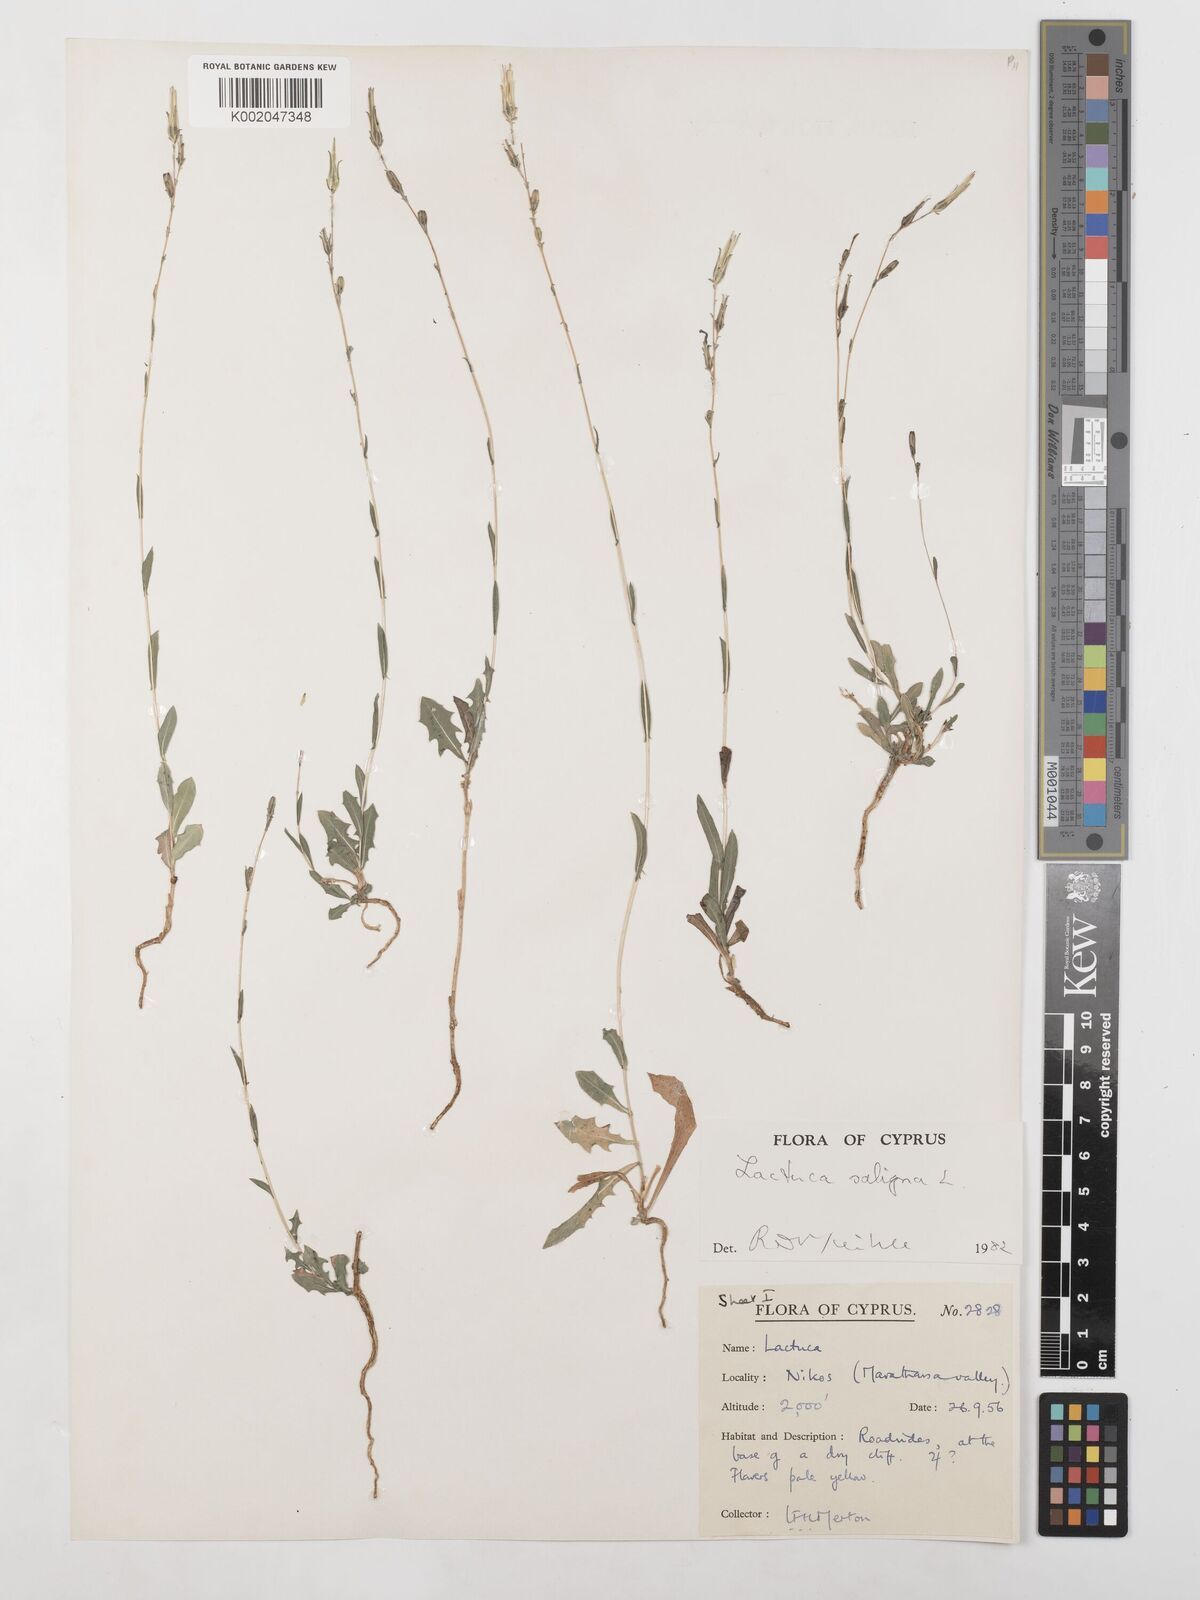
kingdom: Plantae
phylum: Tracheophyta
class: Magnoliopsida
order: Asterales
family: Asteraceae
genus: Lactuca
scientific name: Lactuca saligna
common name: Wild lettuce
